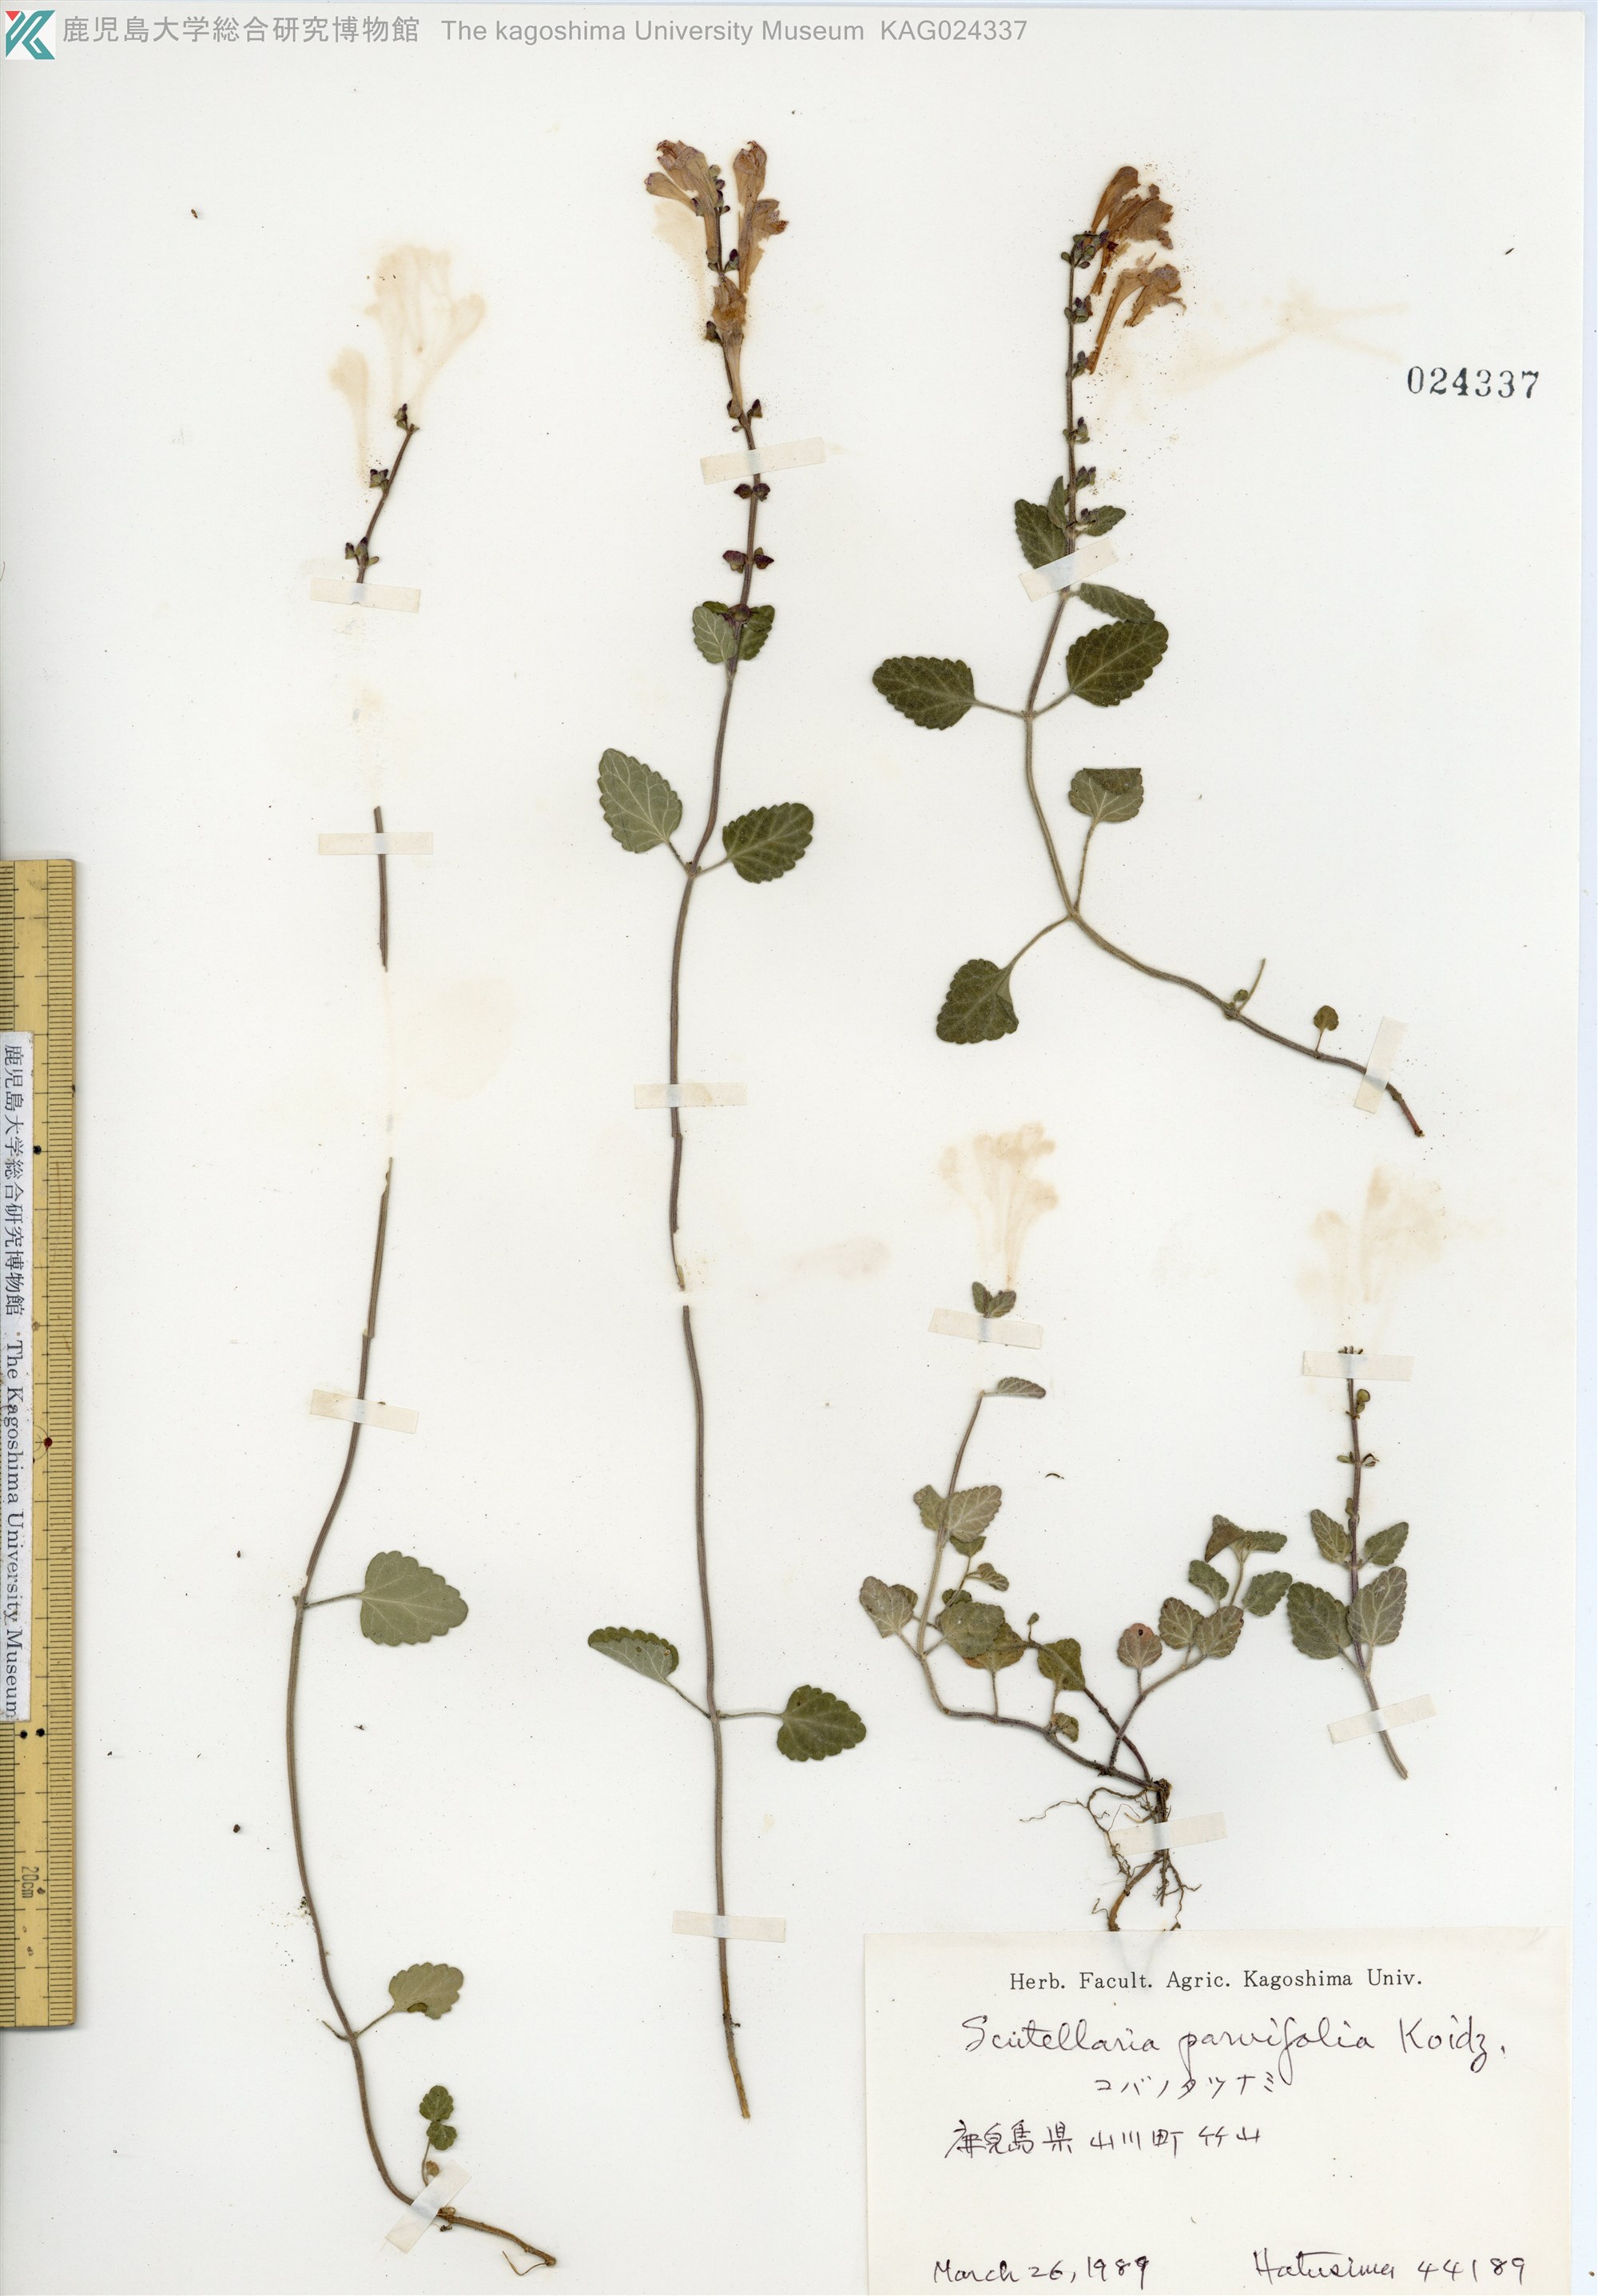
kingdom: Plantae
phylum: Tracheophyta
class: Magnoliopsida
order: Lamiales
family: Lamiaceae
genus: Scutellaria
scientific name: Scutellaria indica
